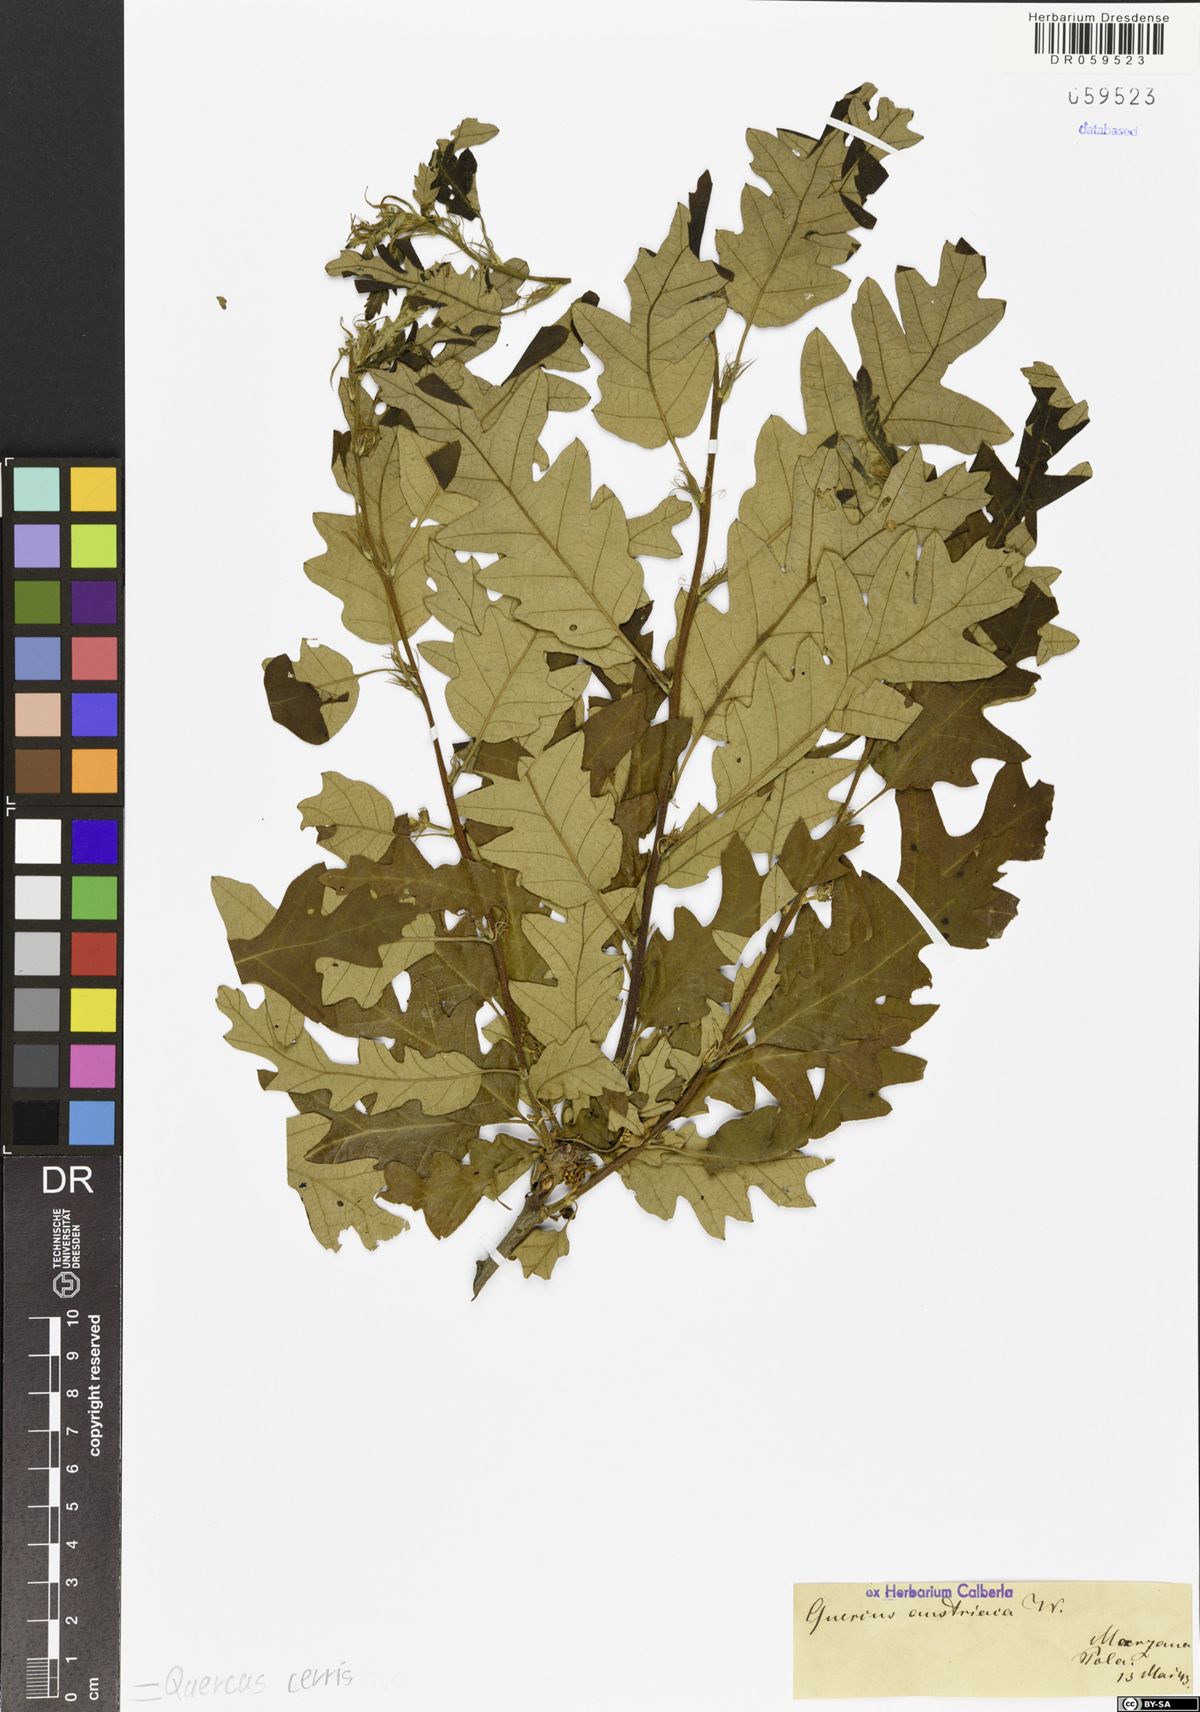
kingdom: Plantae
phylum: Tracheophyta
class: Magnoliopsida
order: Fagales
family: Fagaceae
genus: Quercus
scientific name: Quercus cerris
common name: Turkey oak
